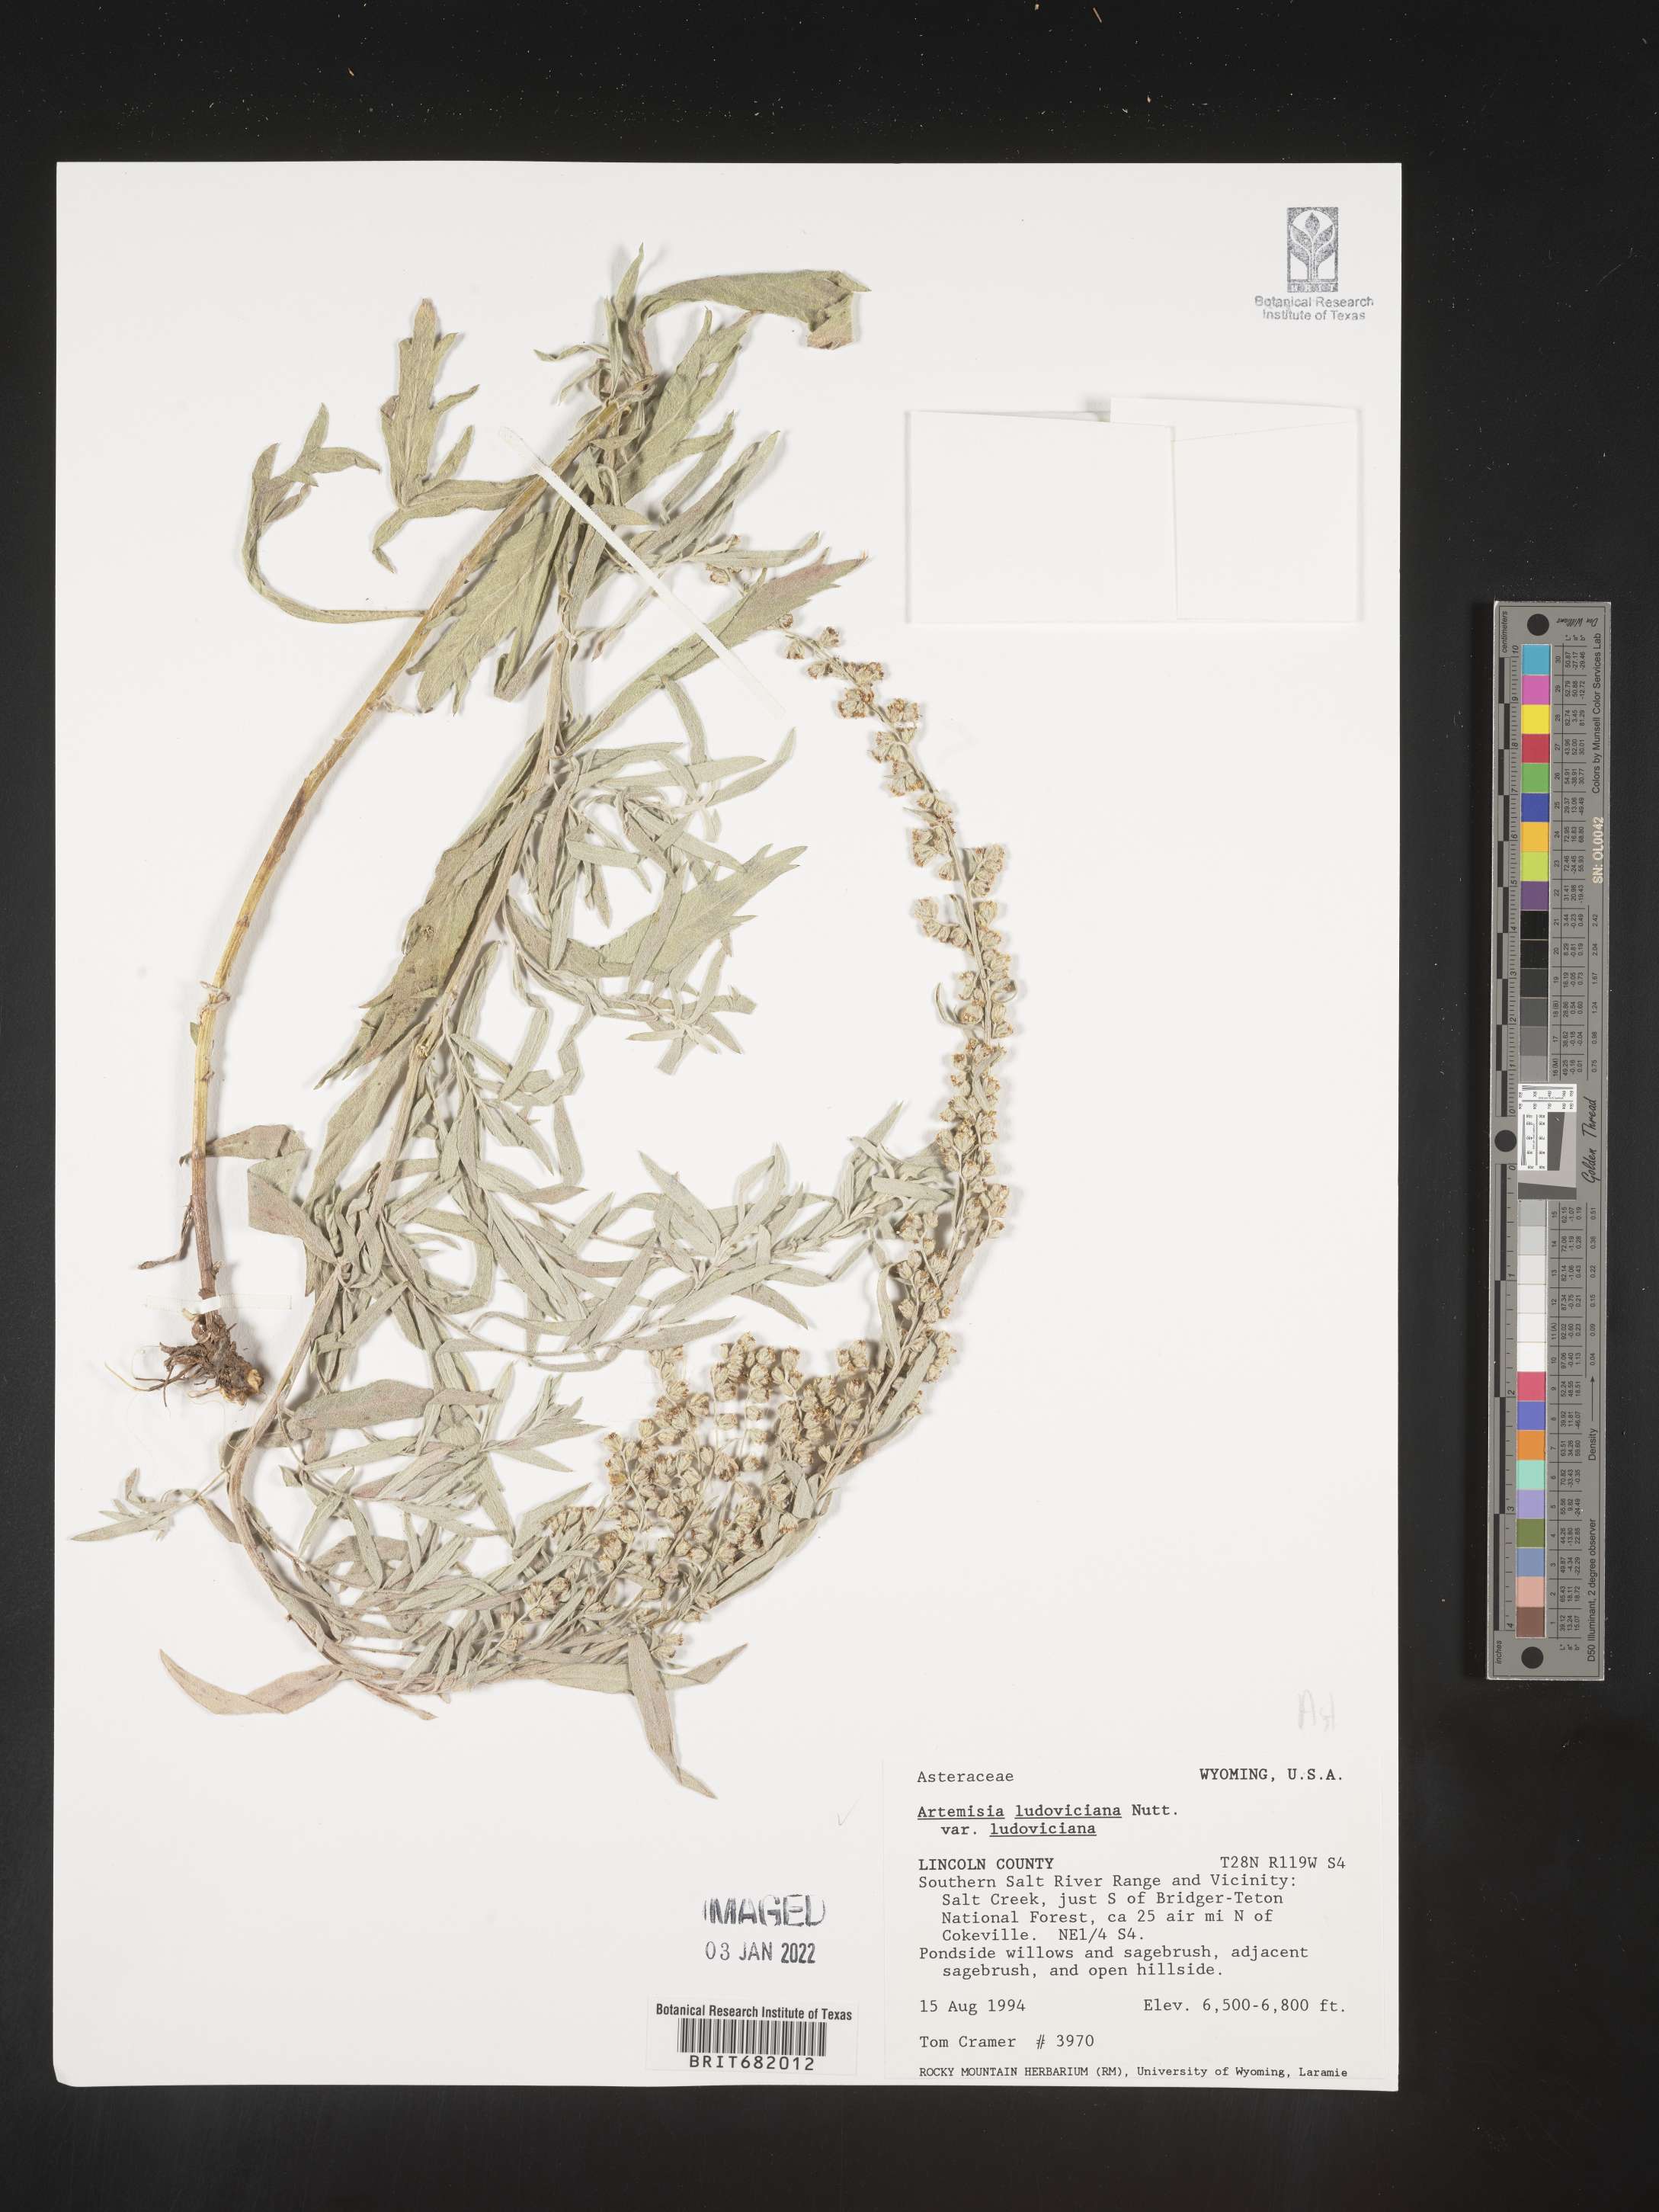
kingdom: Plantae
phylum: Tracheophyta
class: Magnoliopsida
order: Asterales
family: Asteraceae
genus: Artemisia
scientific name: Artemisia ludoviciana
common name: Western mugwort
